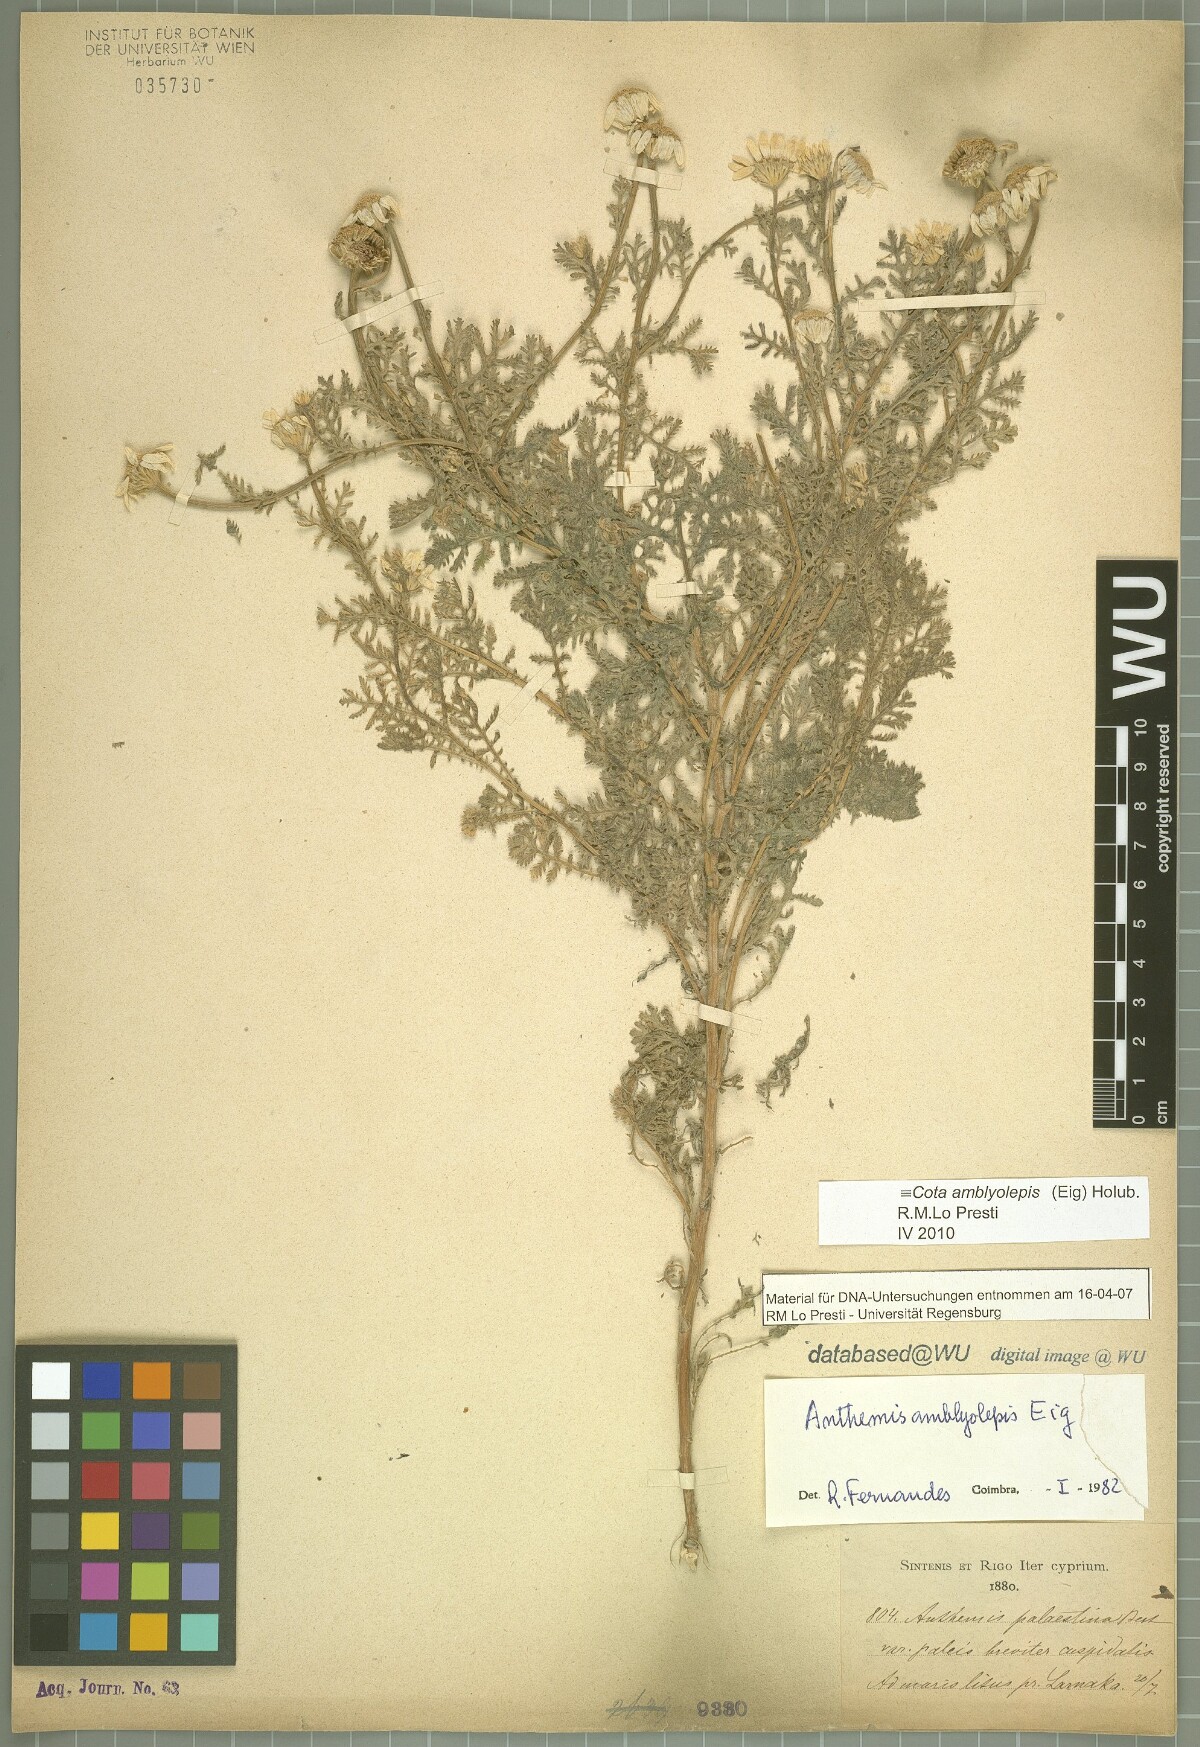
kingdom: Plantae
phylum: Tracheophyta
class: Magnoliopsida
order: Asterales
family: Asteraceae
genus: Cota
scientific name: Cota amblyolepis
